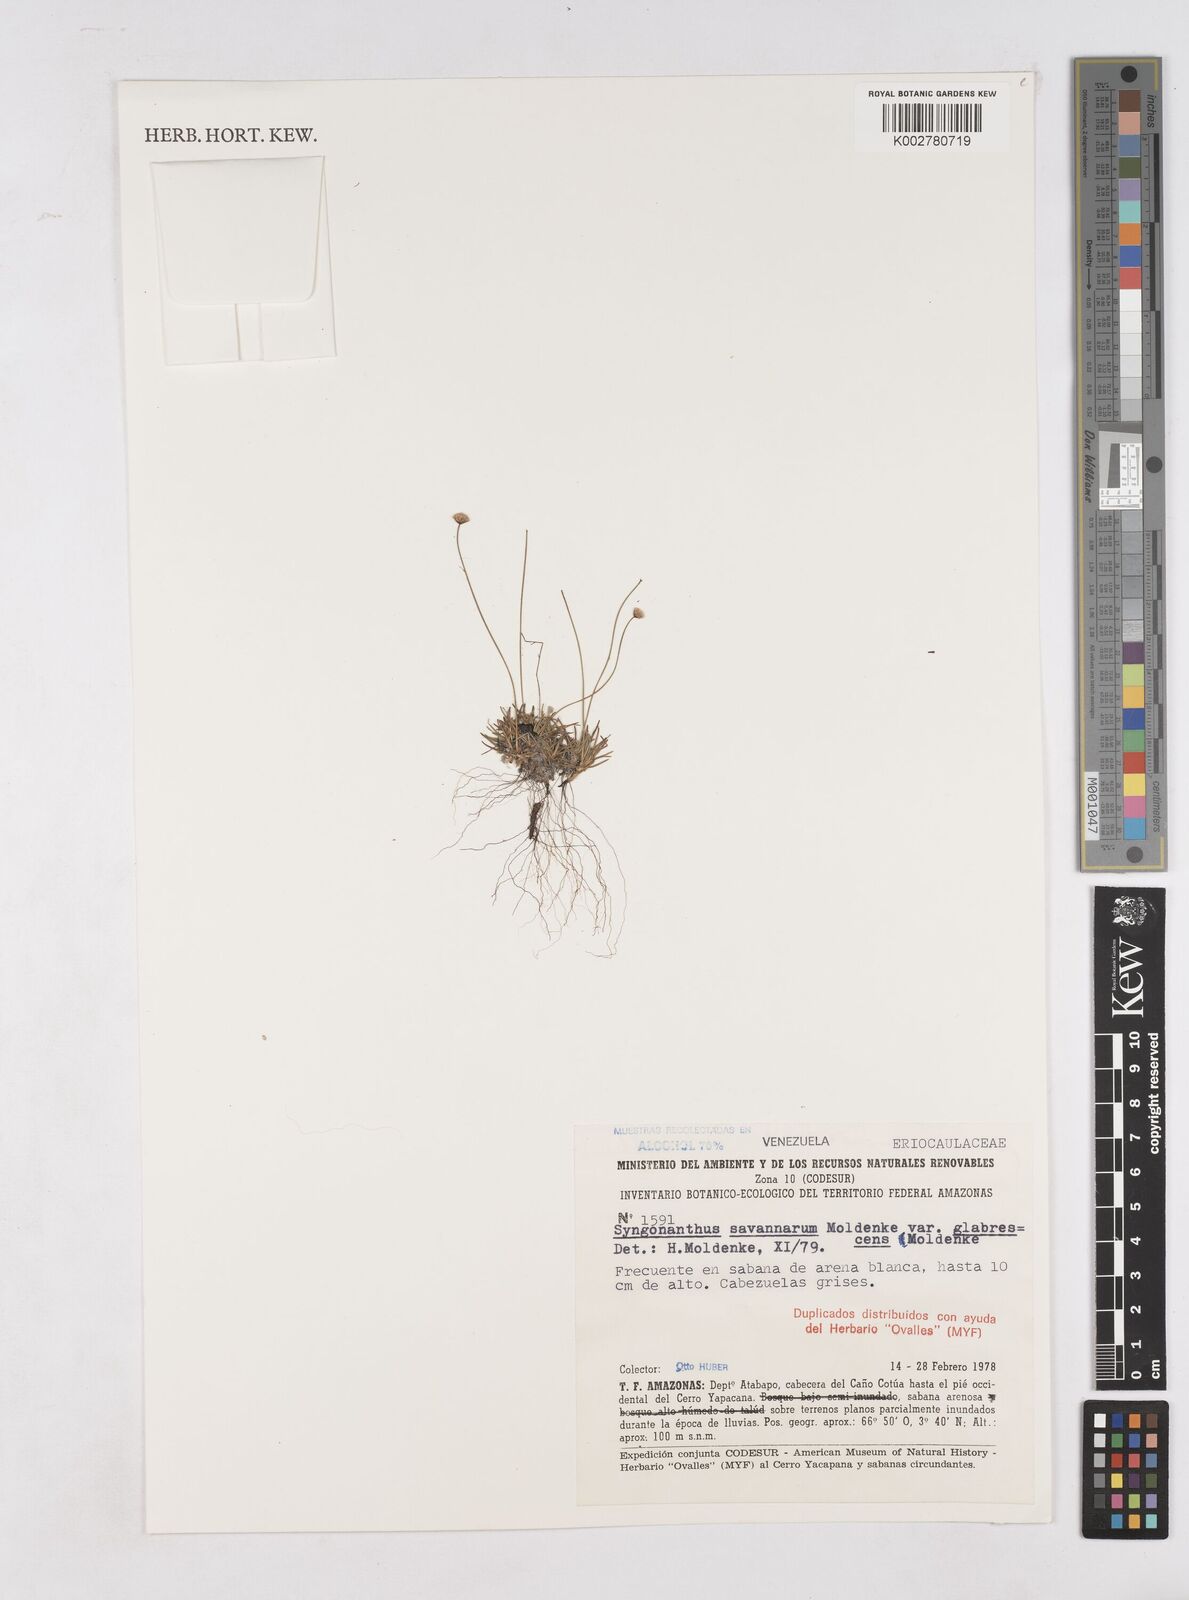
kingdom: Plantae
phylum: Tracheophyta
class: Liliopsida
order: Poales
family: Eriocaulaceae
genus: Paepalanthus
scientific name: Paepalanthus dichotomus
